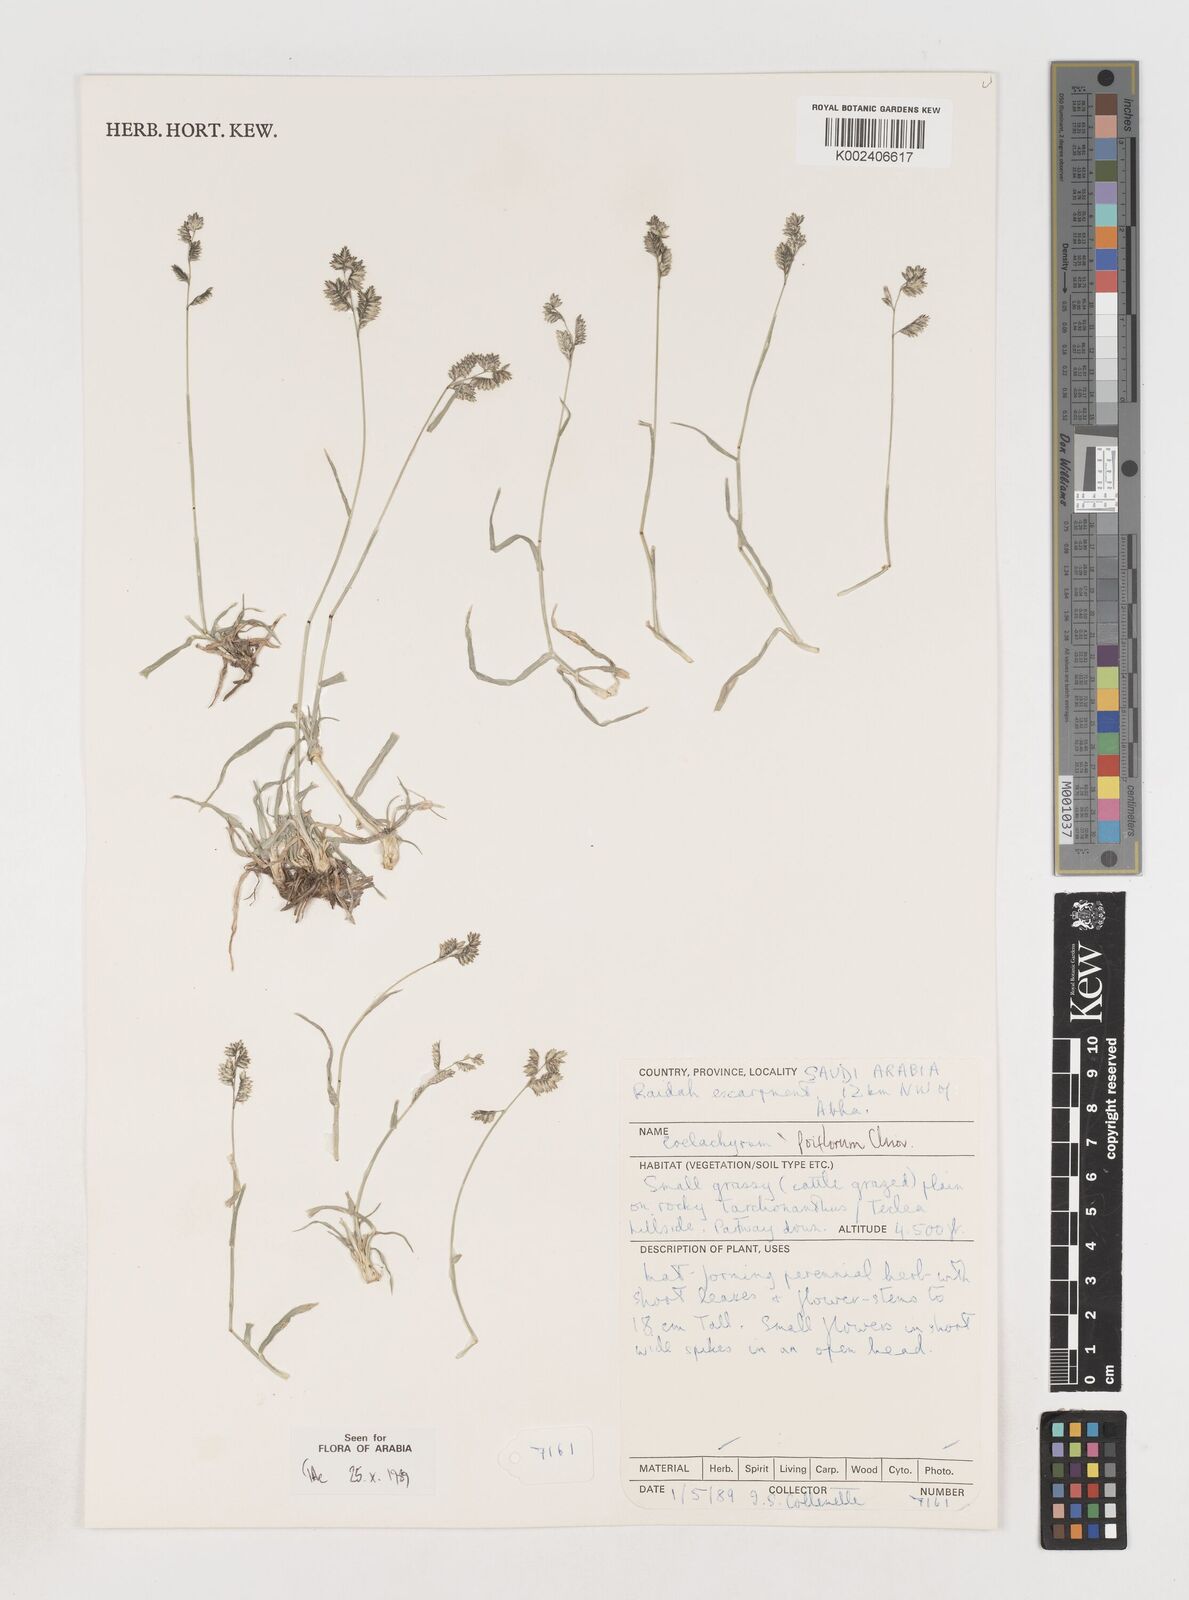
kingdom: Plantae
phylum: Tracheophyta
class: Liliopsida
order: Poales
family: Poaceae
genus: Coelachyrum
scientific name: Coelachyrum poiflorum
